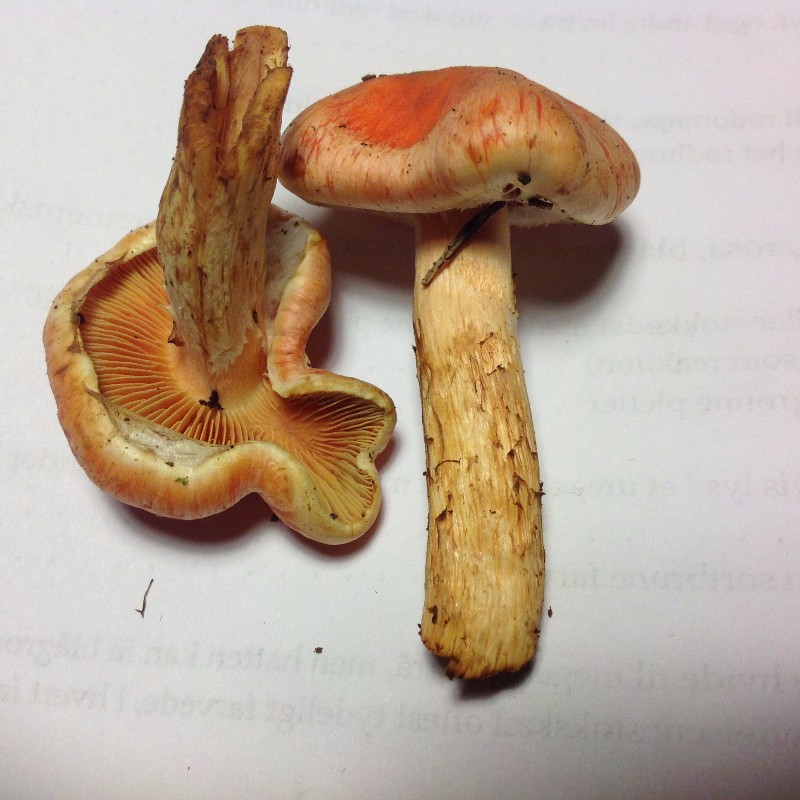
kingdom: Fungi
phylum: Basidiomycota
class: Agaricomycetes
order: Agaricales
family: Strophariaceae
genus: Pyrrhulomyces
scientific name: Pyrrhulomyces astragalinus
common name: safran-skælhat
